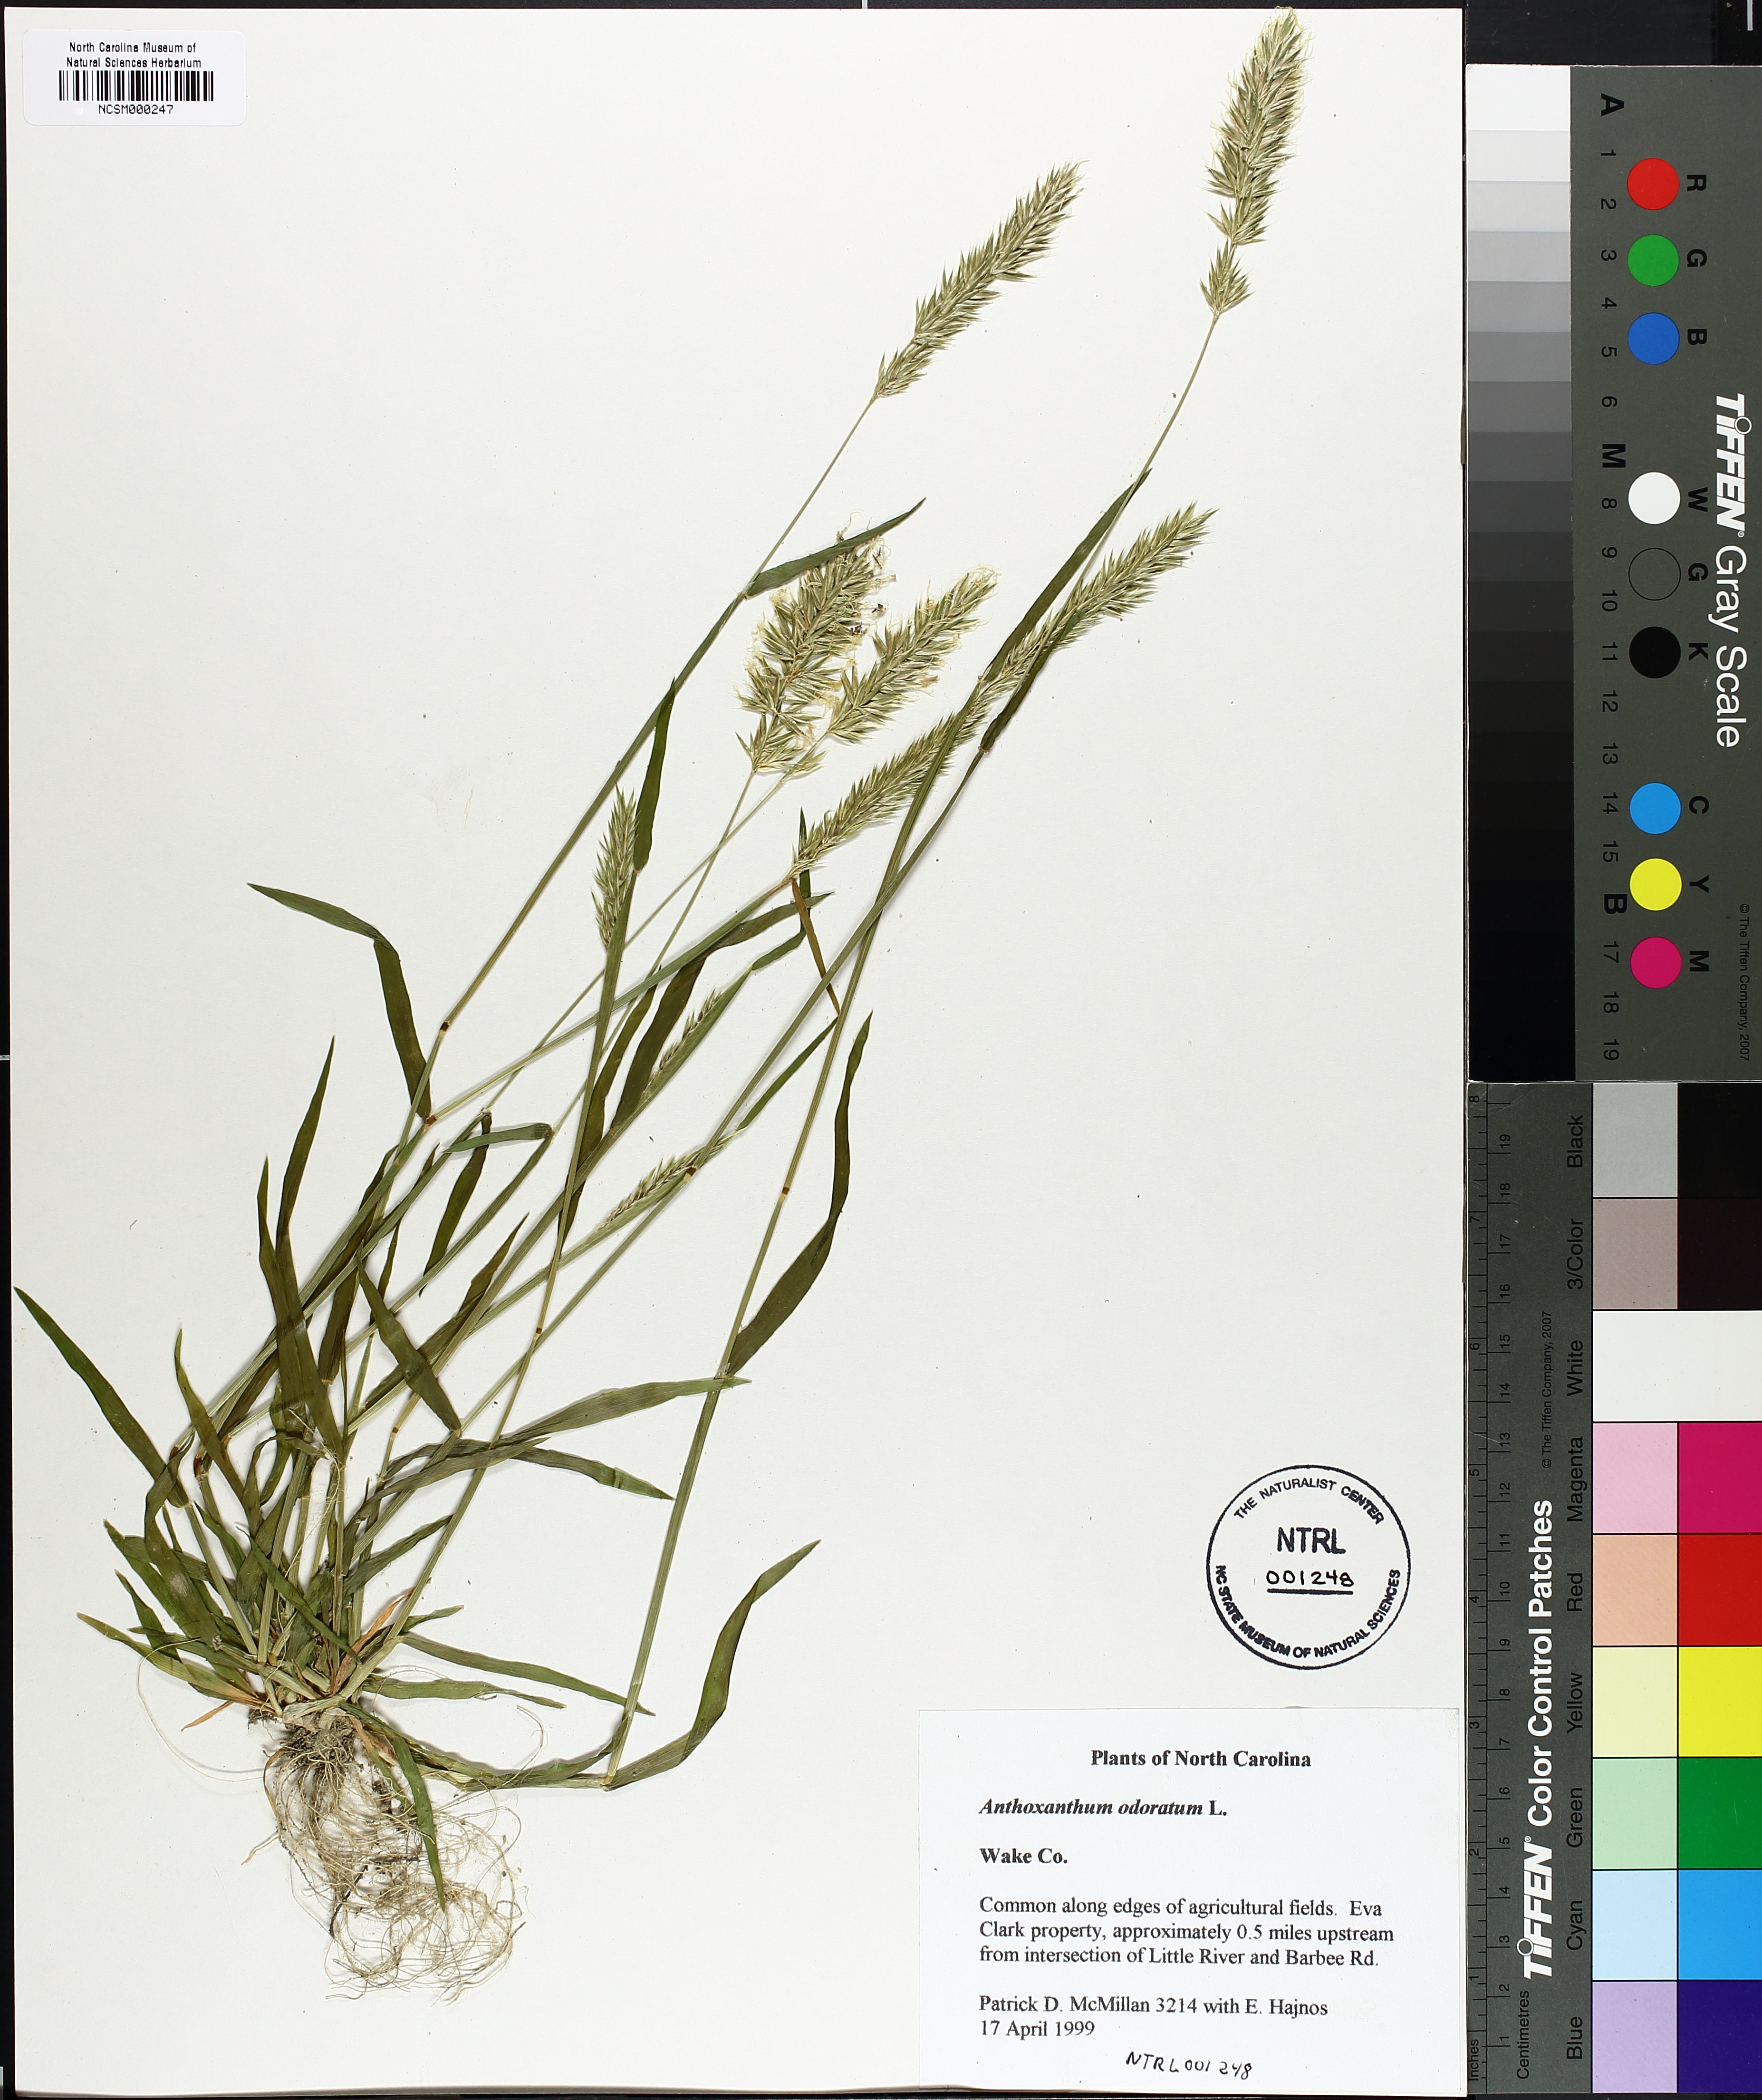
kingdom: Plantae
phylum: Tracheophyta
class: Liliopsida
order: Poales
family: Poaceae
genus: Anthoxanthum
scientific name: Anthoxanthum odoratum
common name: Sweet vernalgrass
